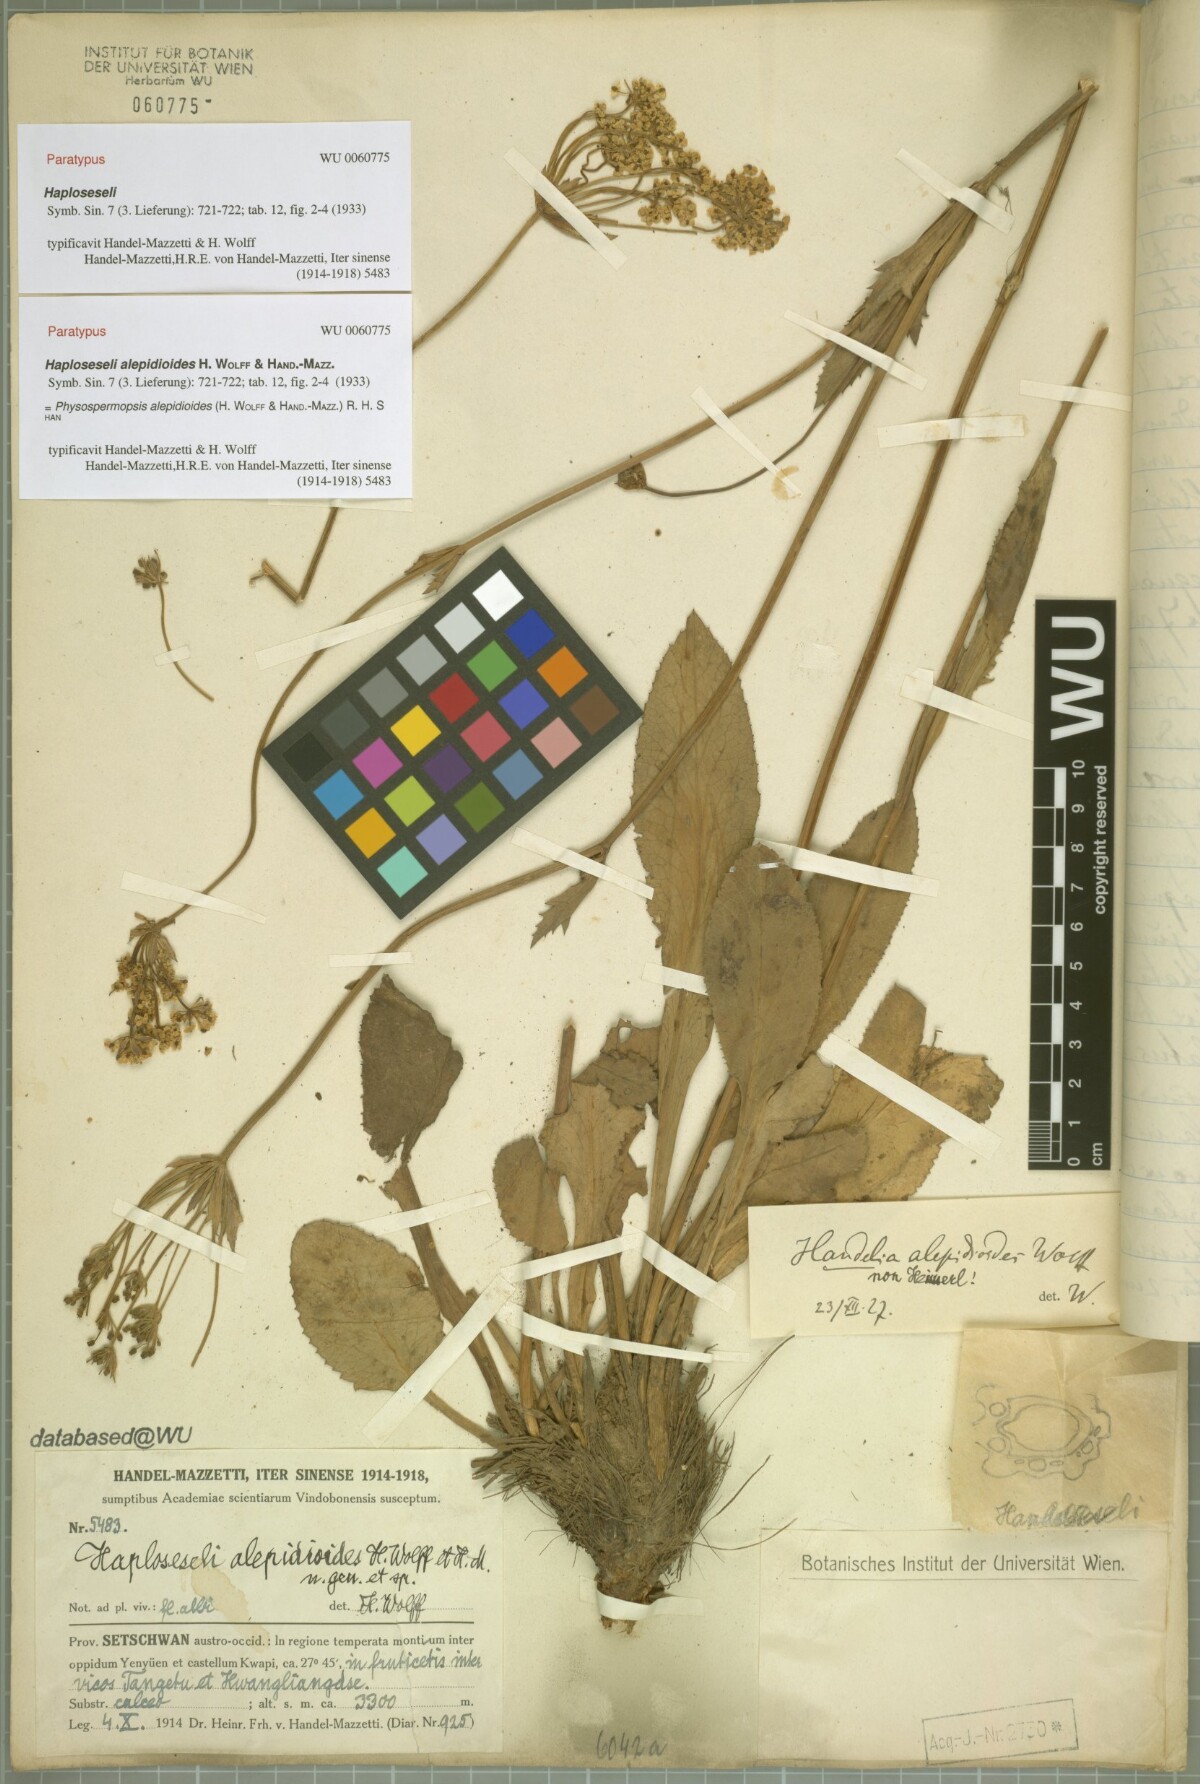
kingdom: Plantae
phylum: Tracheophyta
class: Magnoliopsida
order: Apiales
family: Apiaceae
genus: Physospermopsis
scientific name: Physospermopsis alepidioides
